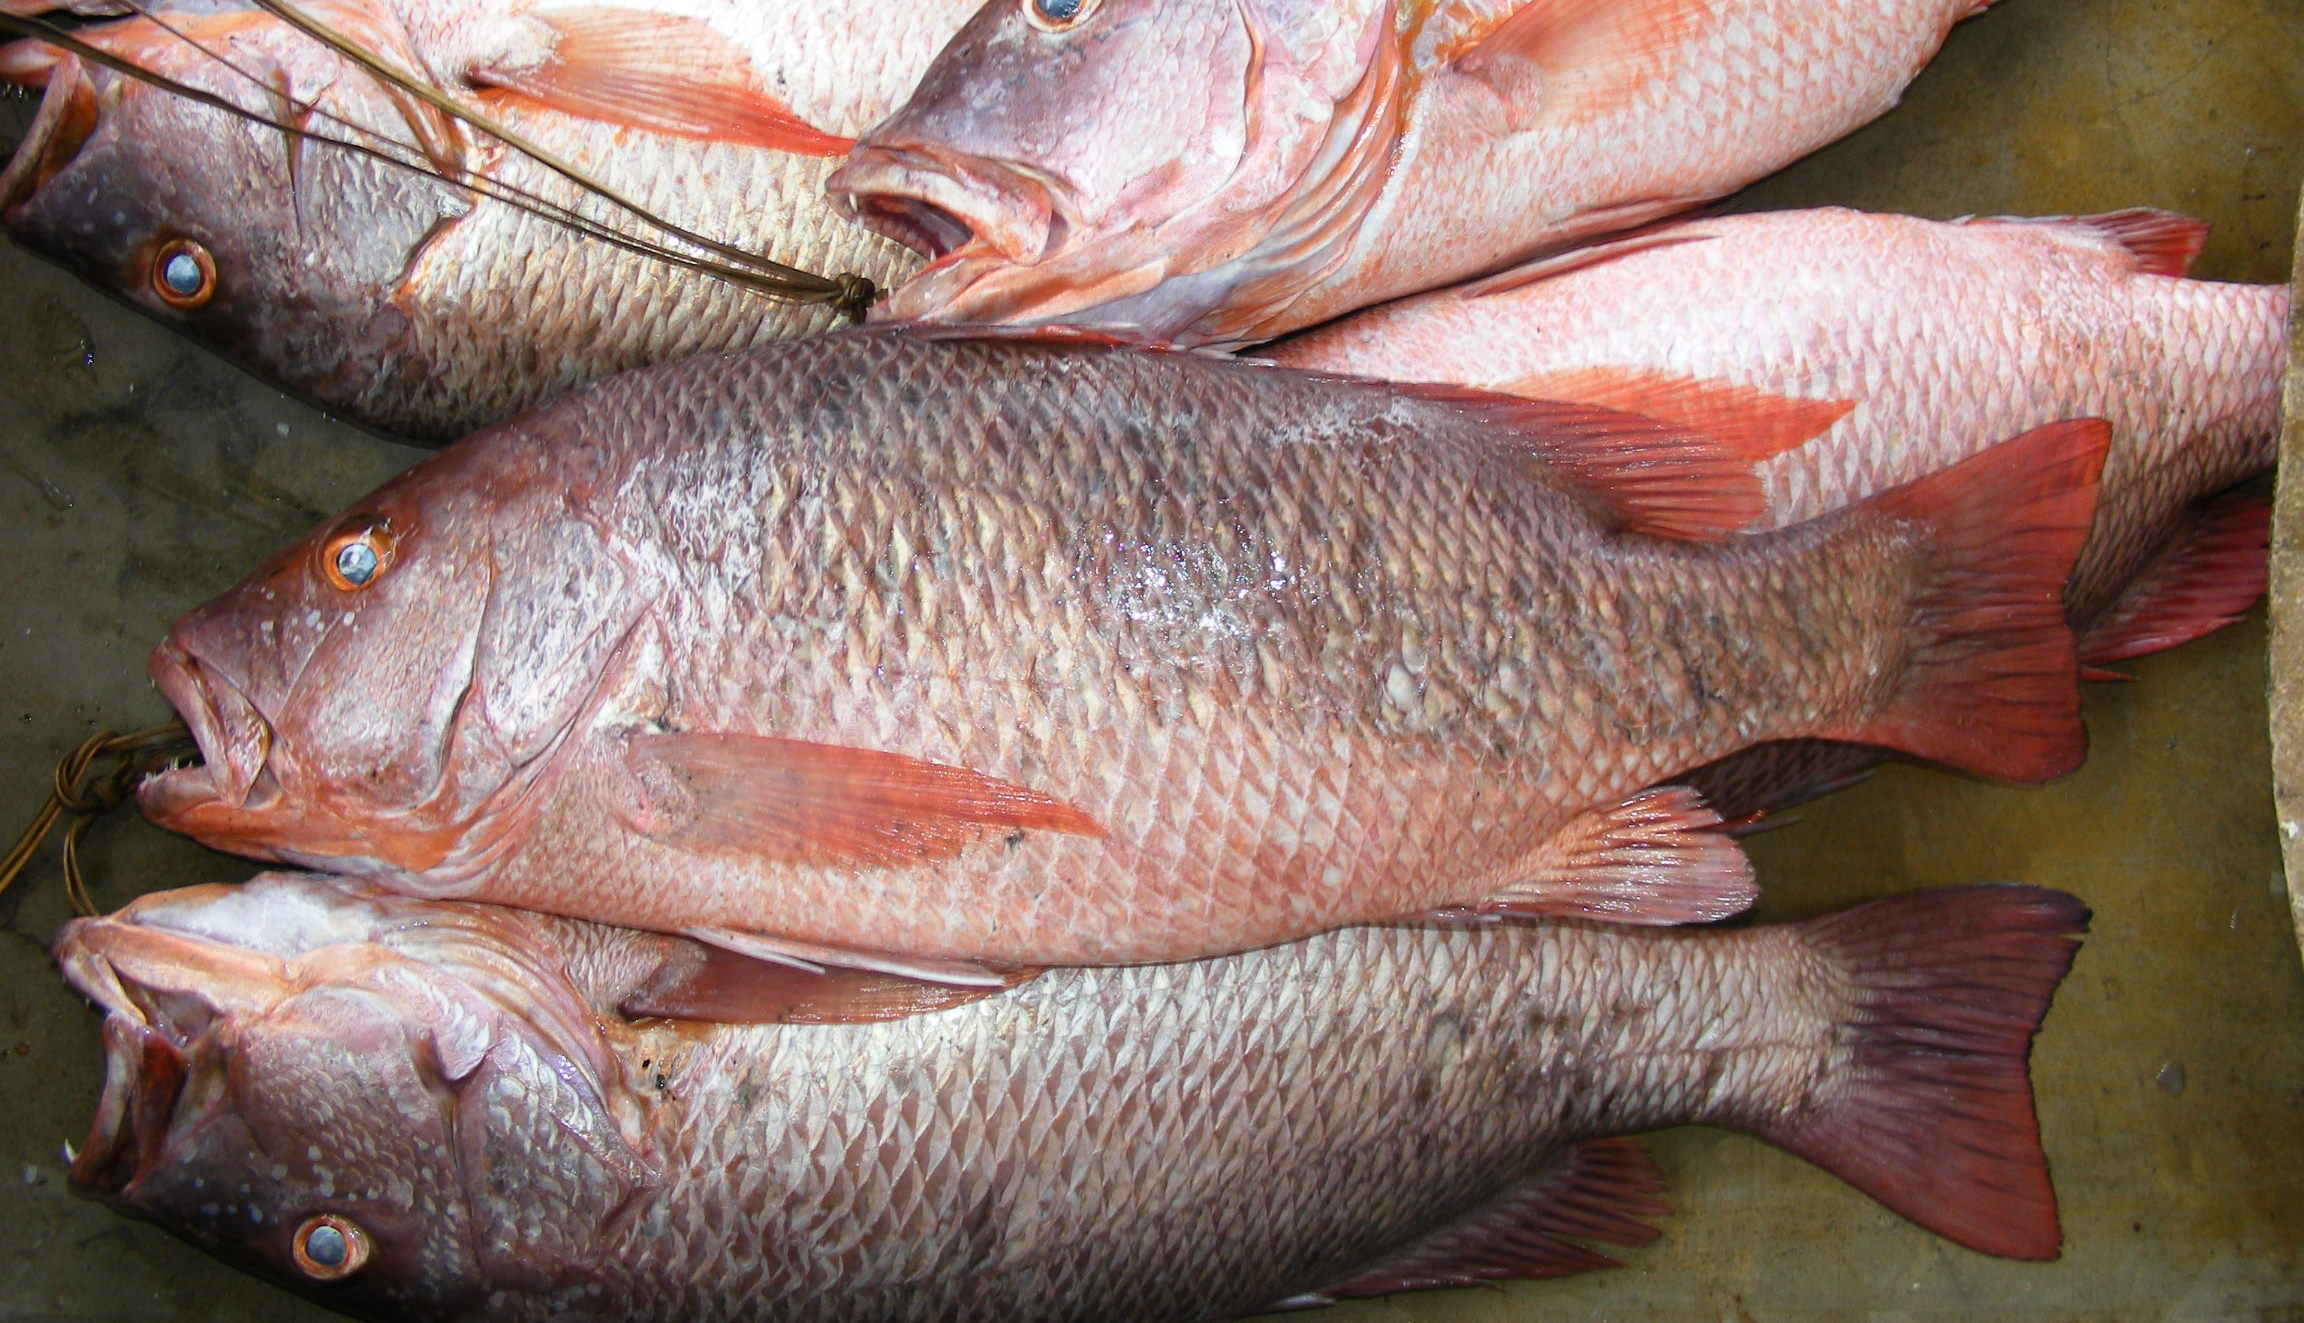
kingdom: Animalia
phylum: Chordata
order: Perciformes
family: Lutjanidae
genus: Lutjanus
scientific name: Lutjanus bohar
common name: Red bass
